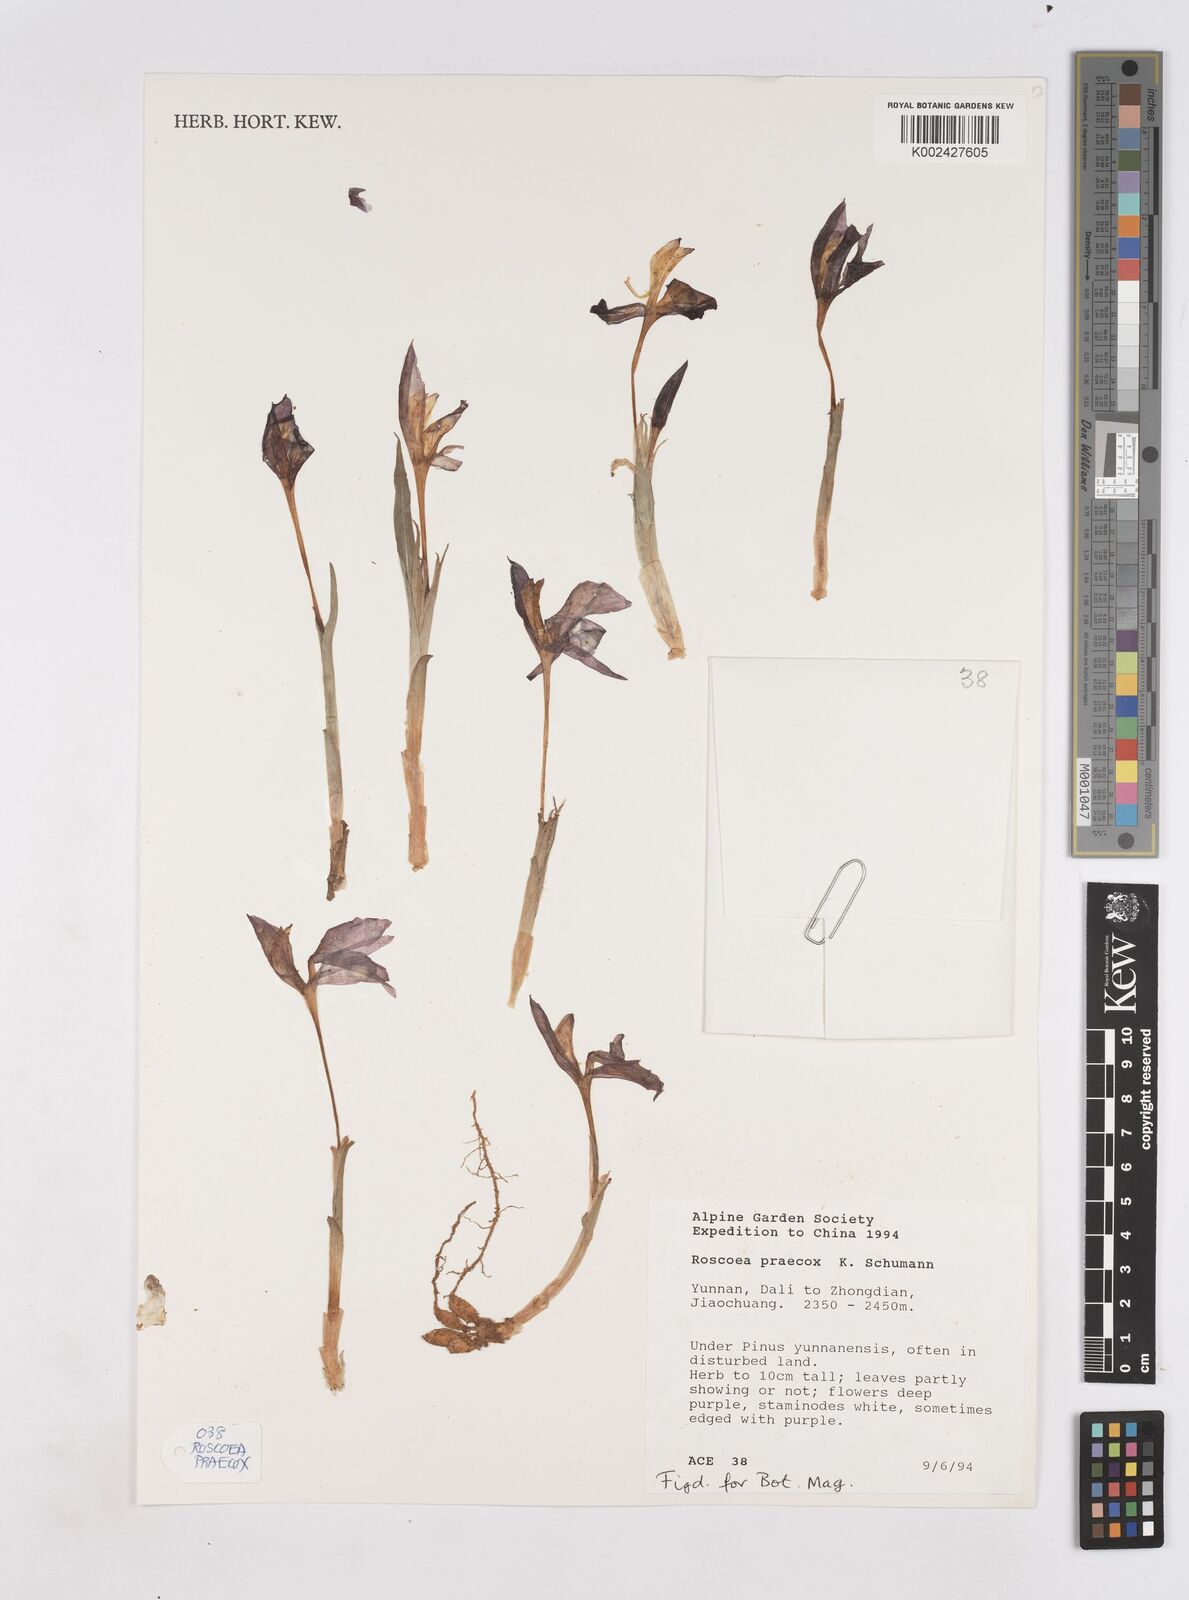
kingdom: Plantae
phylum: Tracheophyta
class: Liliopsida
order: Zingiberales
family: Zingiberaceae
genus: Roscoea
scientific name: Roscoea praecox
